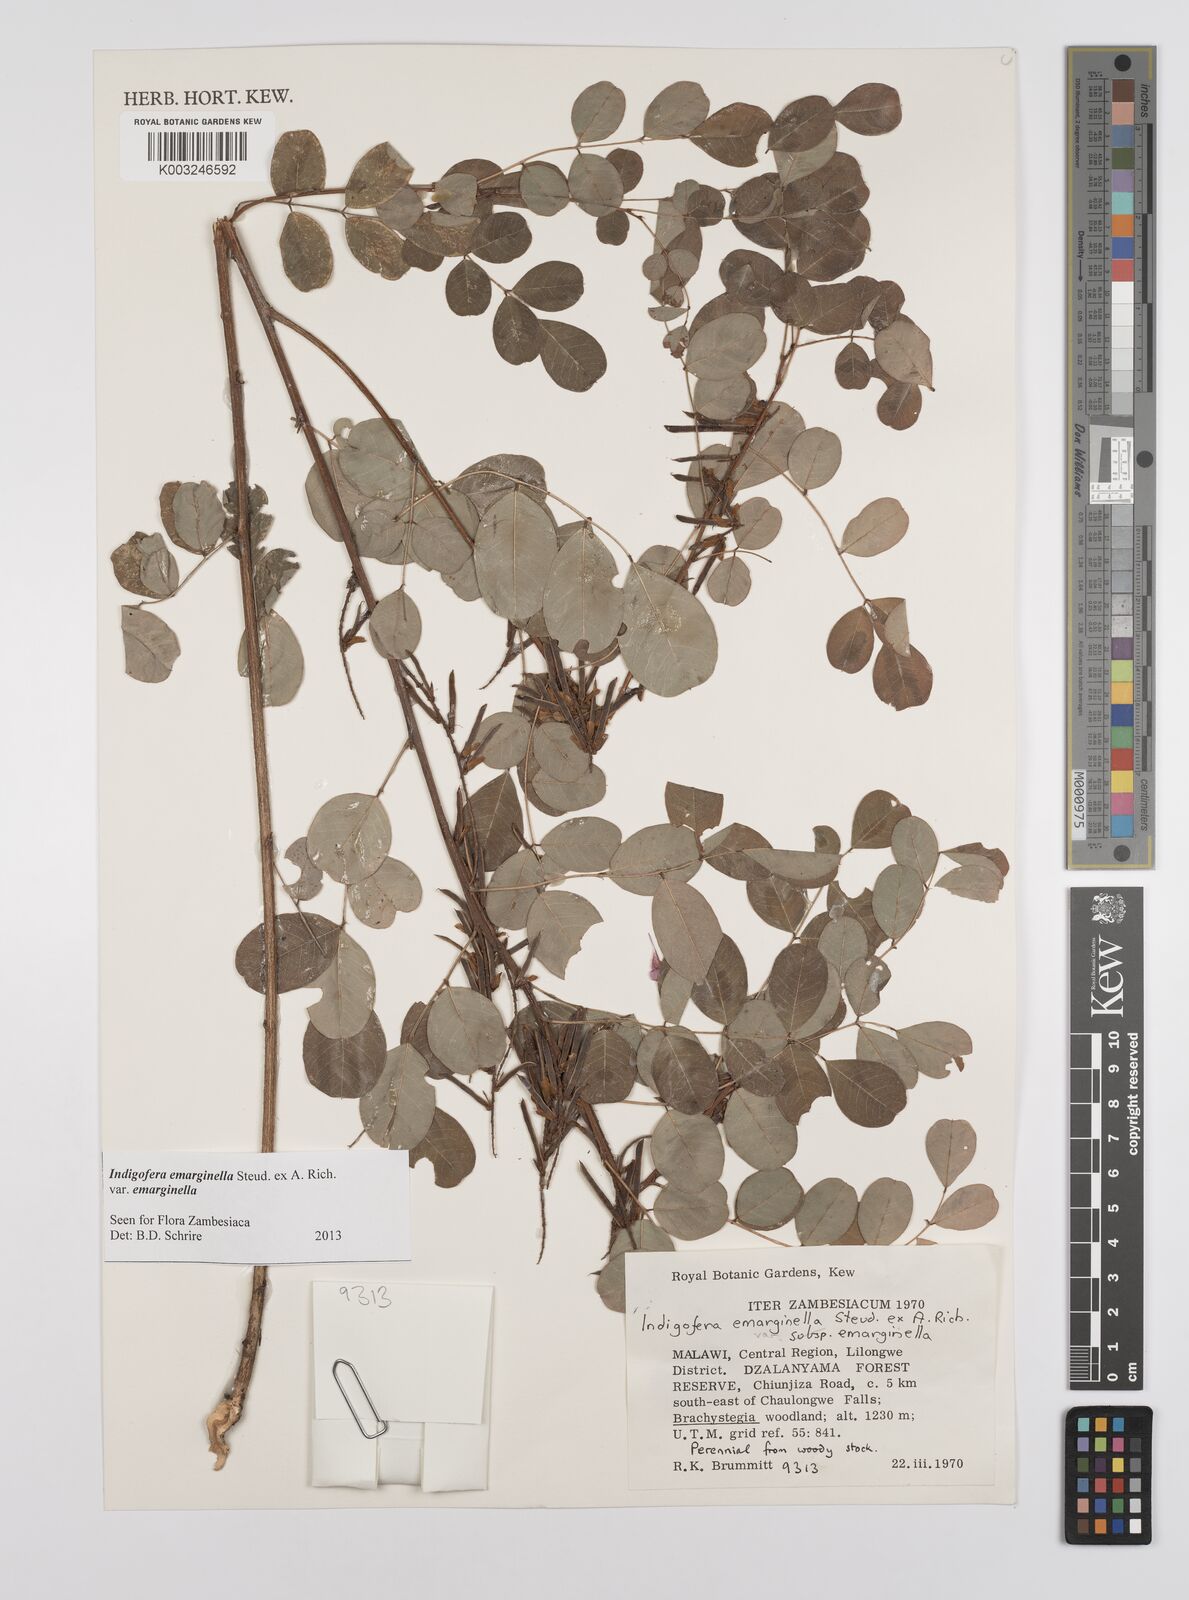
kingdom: Plantae
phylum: Tracheophyta
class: Magnoliopsida
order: Fabales
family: Fabaceae
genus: Indigofera
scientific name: Indigofera emarginella
